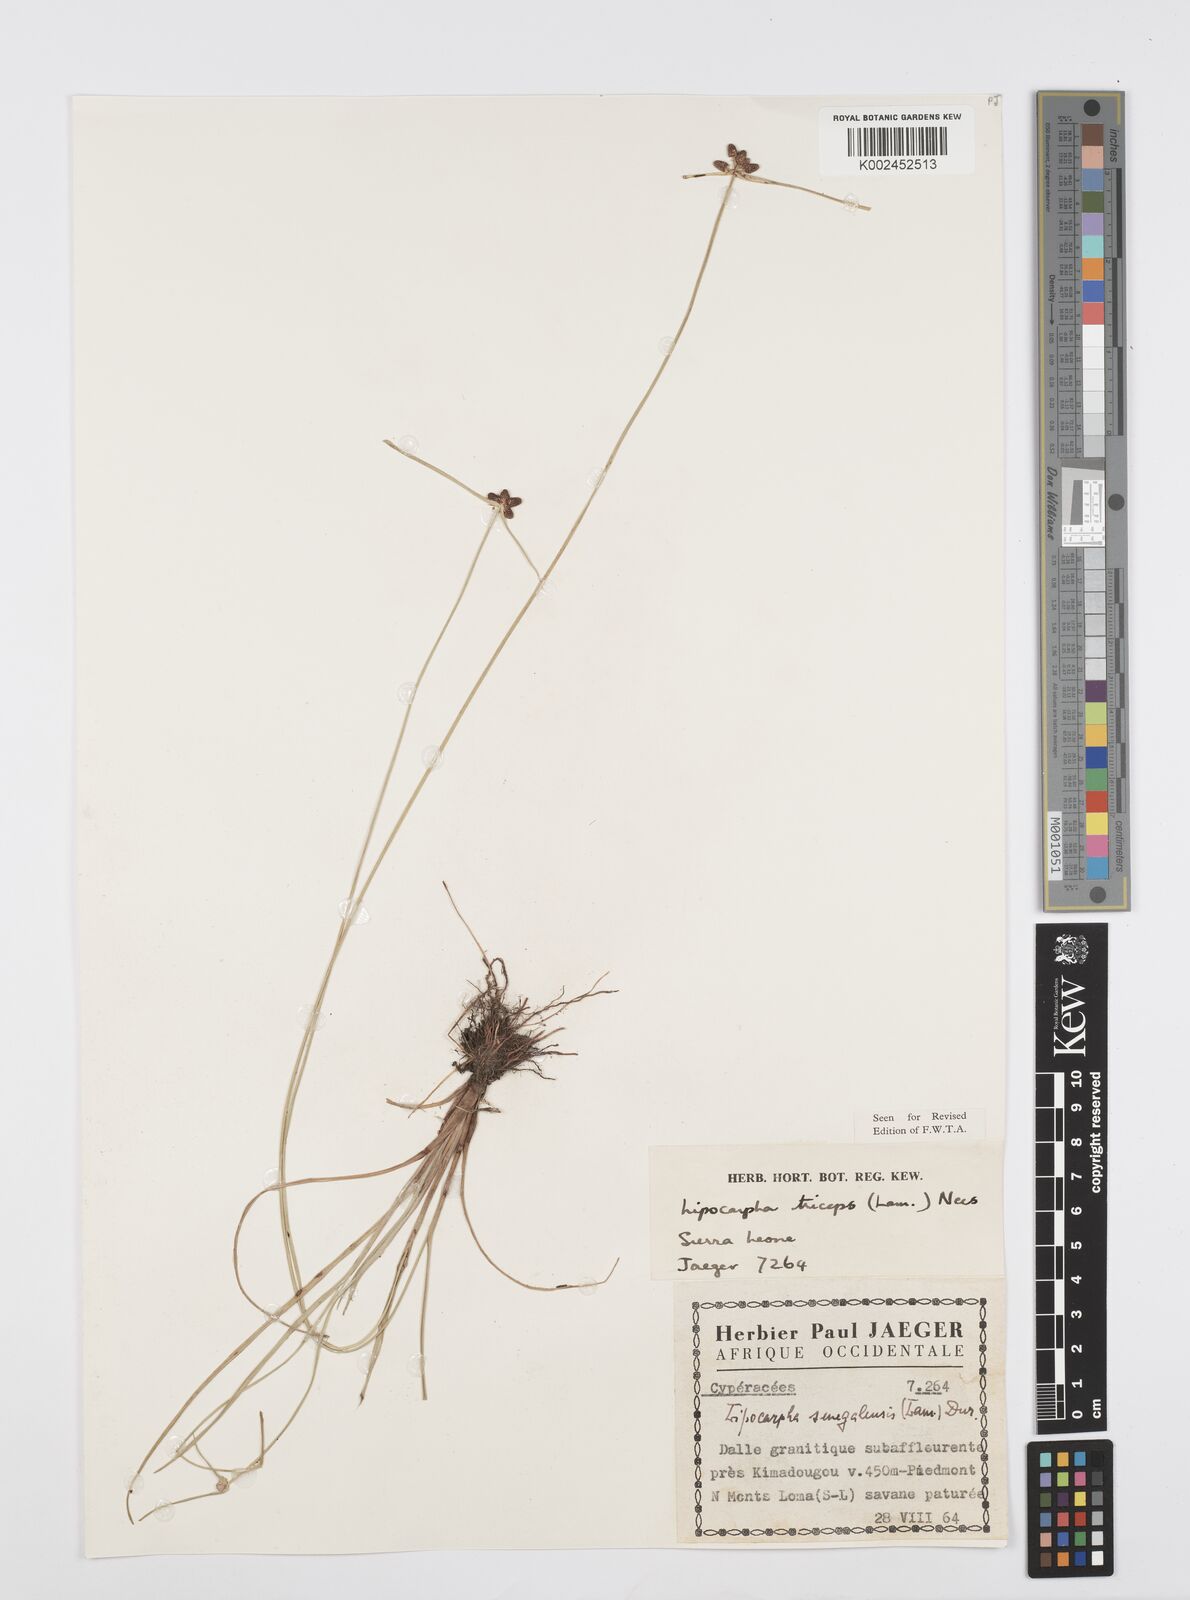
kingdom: Plantae
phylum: Tracheophyta
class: Liliopsida
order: Poales
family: Cyperaceae
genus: Cyperus
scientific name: Cyperus filiformis
